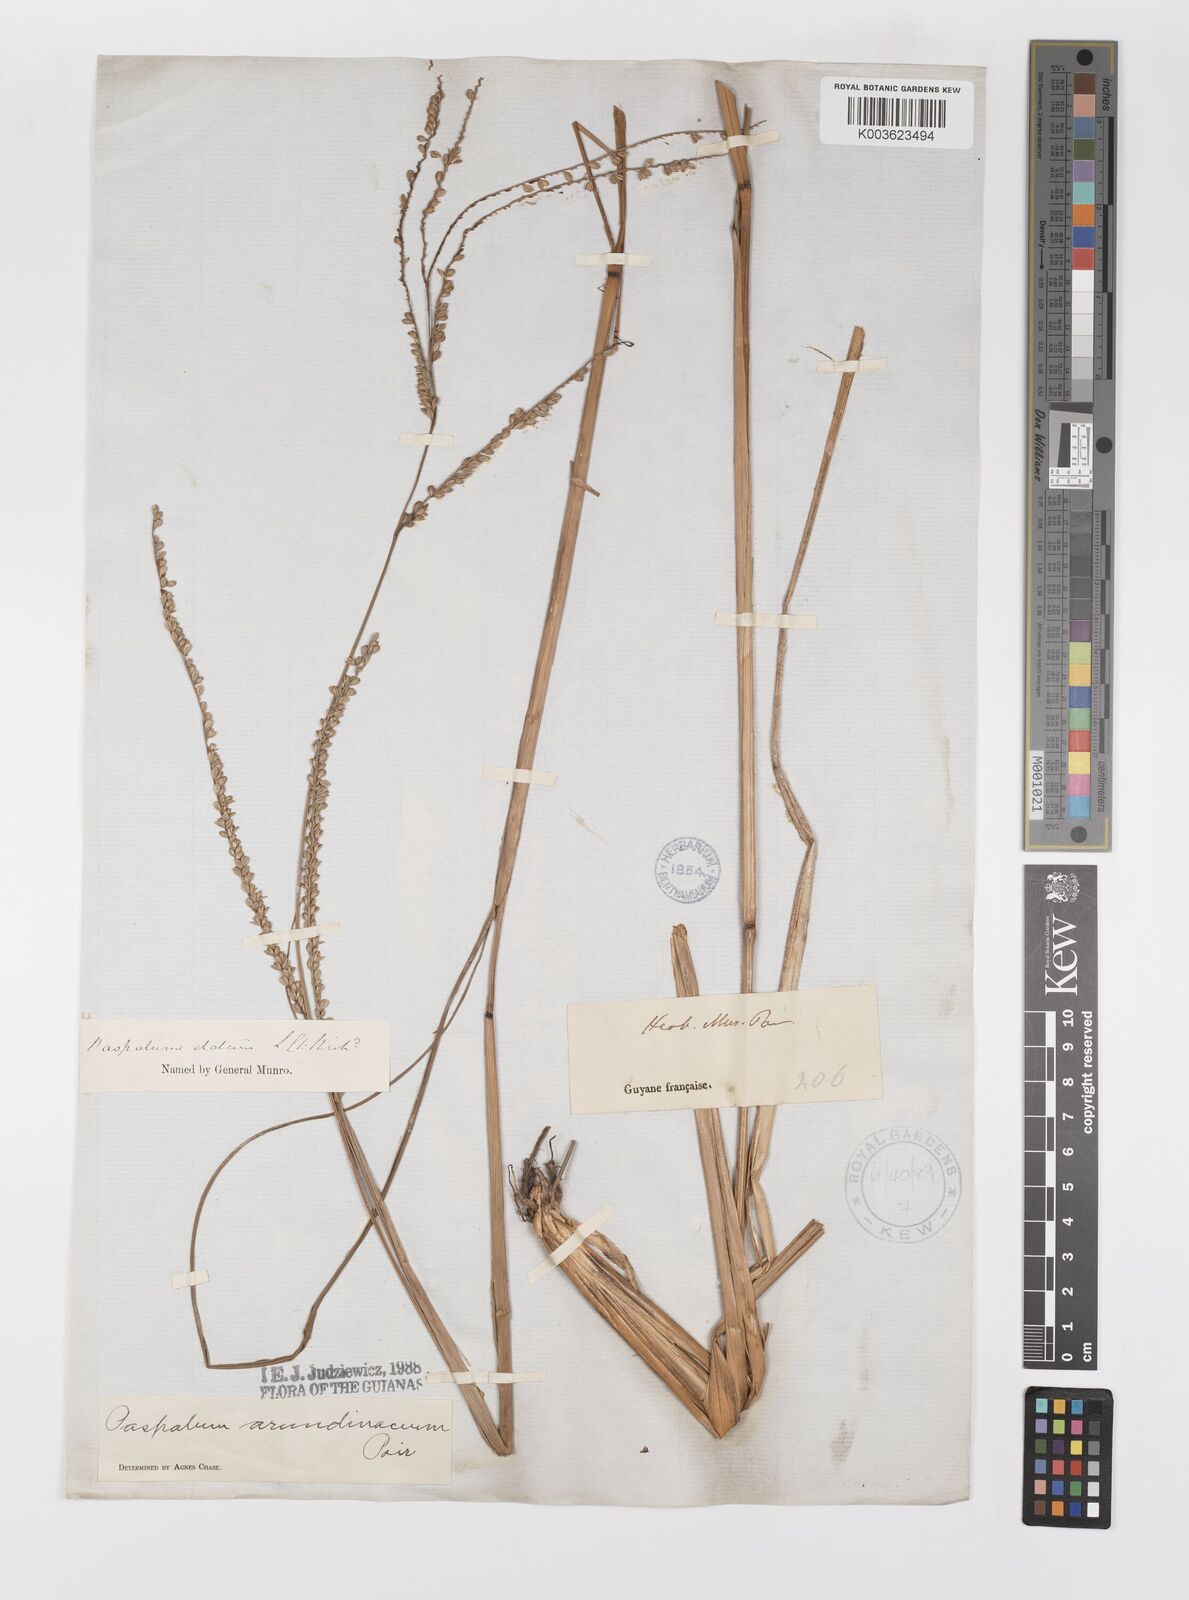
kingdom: Plantae
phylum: Tracheophyta
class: Liliopsida
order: Poales
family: Poaceae
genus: Paspalum
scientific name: Paspalum arundinaceum
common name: Thick ditch crowngrass
